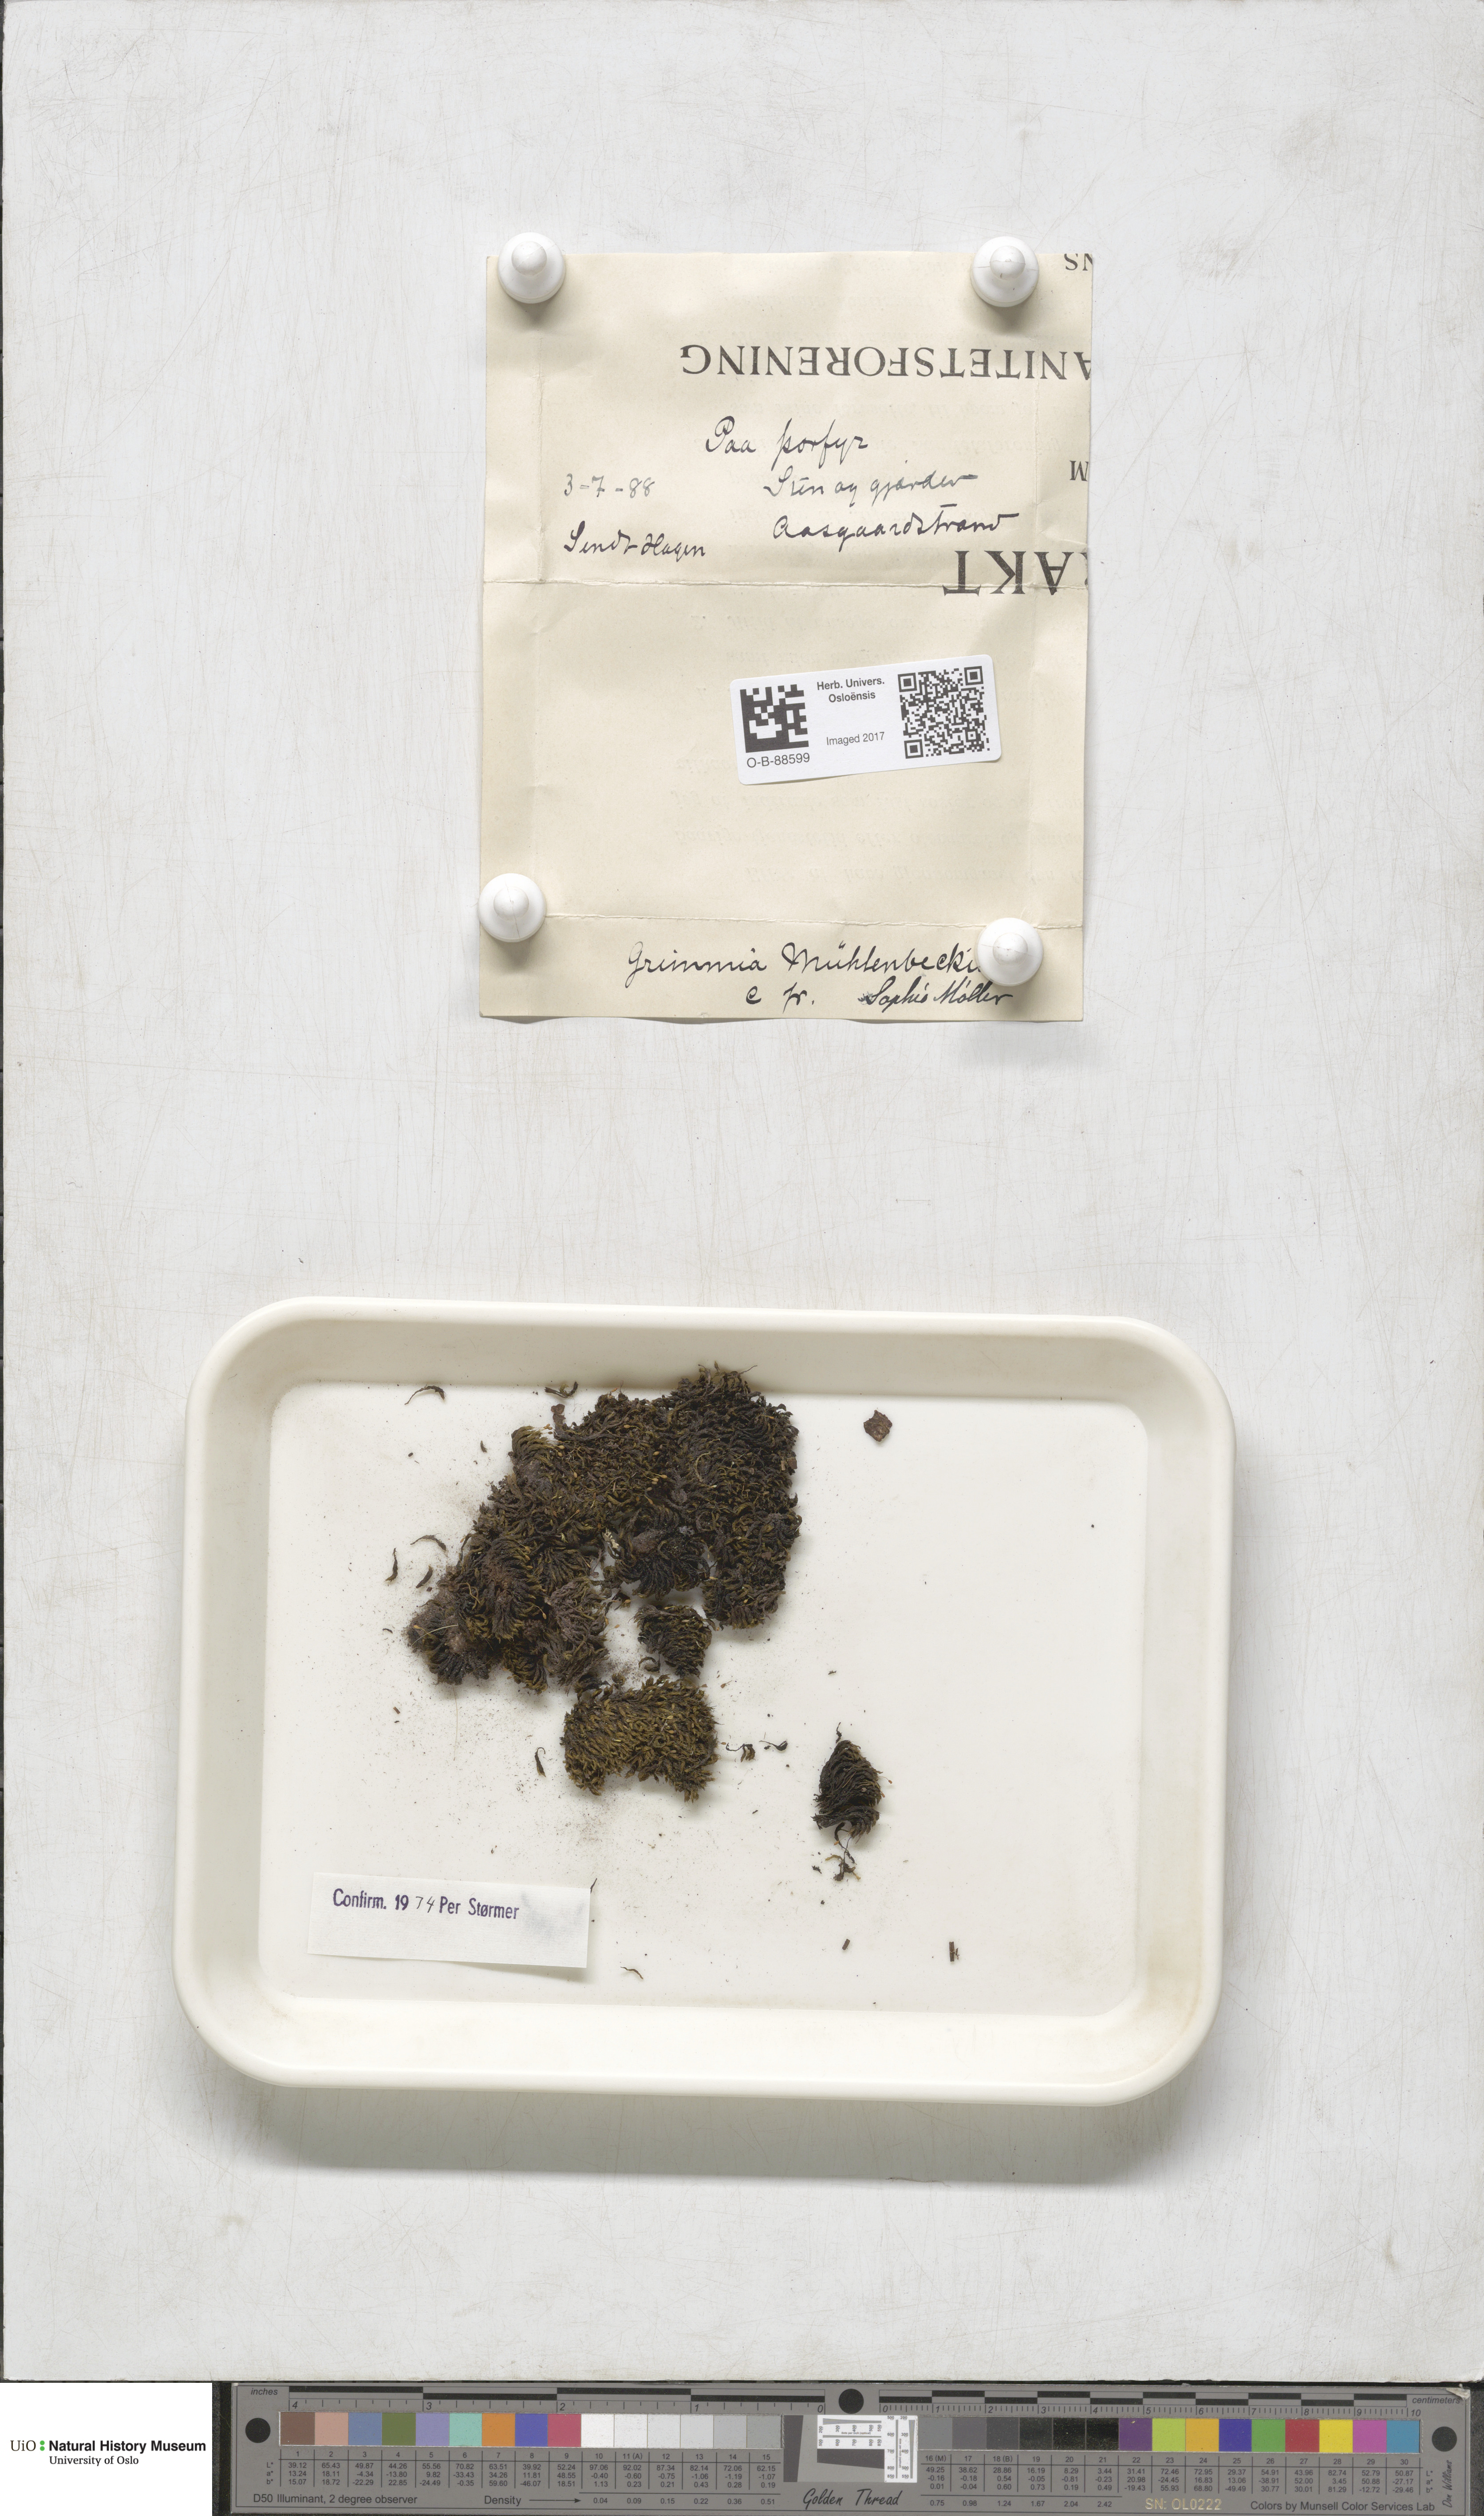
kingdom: Plantae
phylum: Bryophyta
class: Bryopsida
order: Grimmiales
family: Grimmiaceae
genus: Grimmia
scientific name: Grimmia trichophylla
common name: Hair-pointed grimmia
